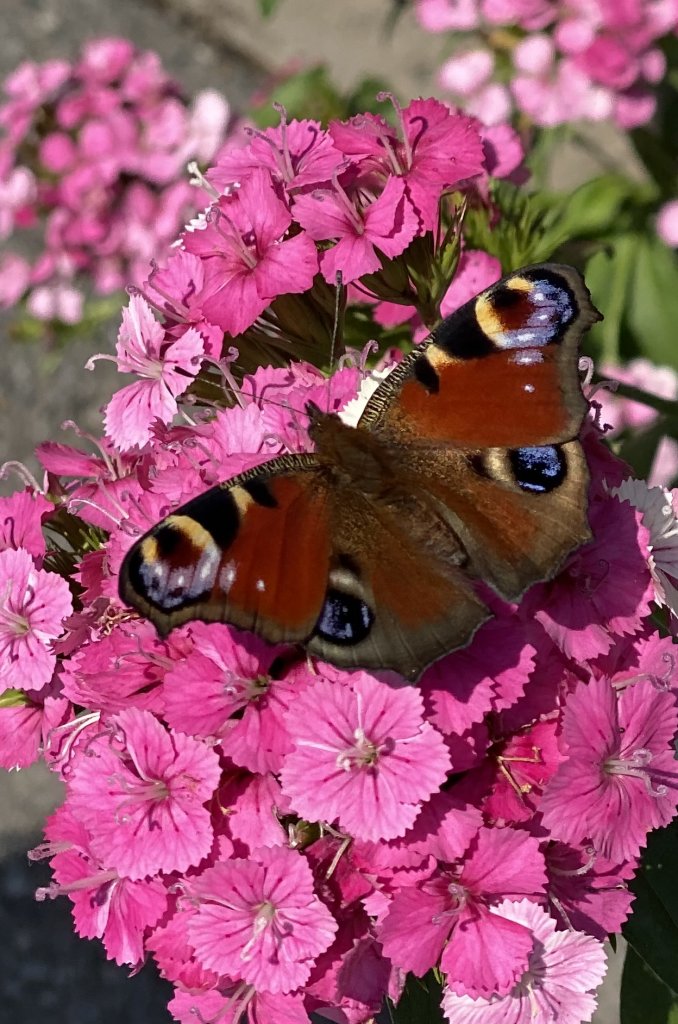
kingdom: Animalia
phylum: Arthropoda
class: Insecta
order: Lepidoptera
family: Nymphalidae
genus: Aglais
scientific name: Aglais io
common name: European Peacock
